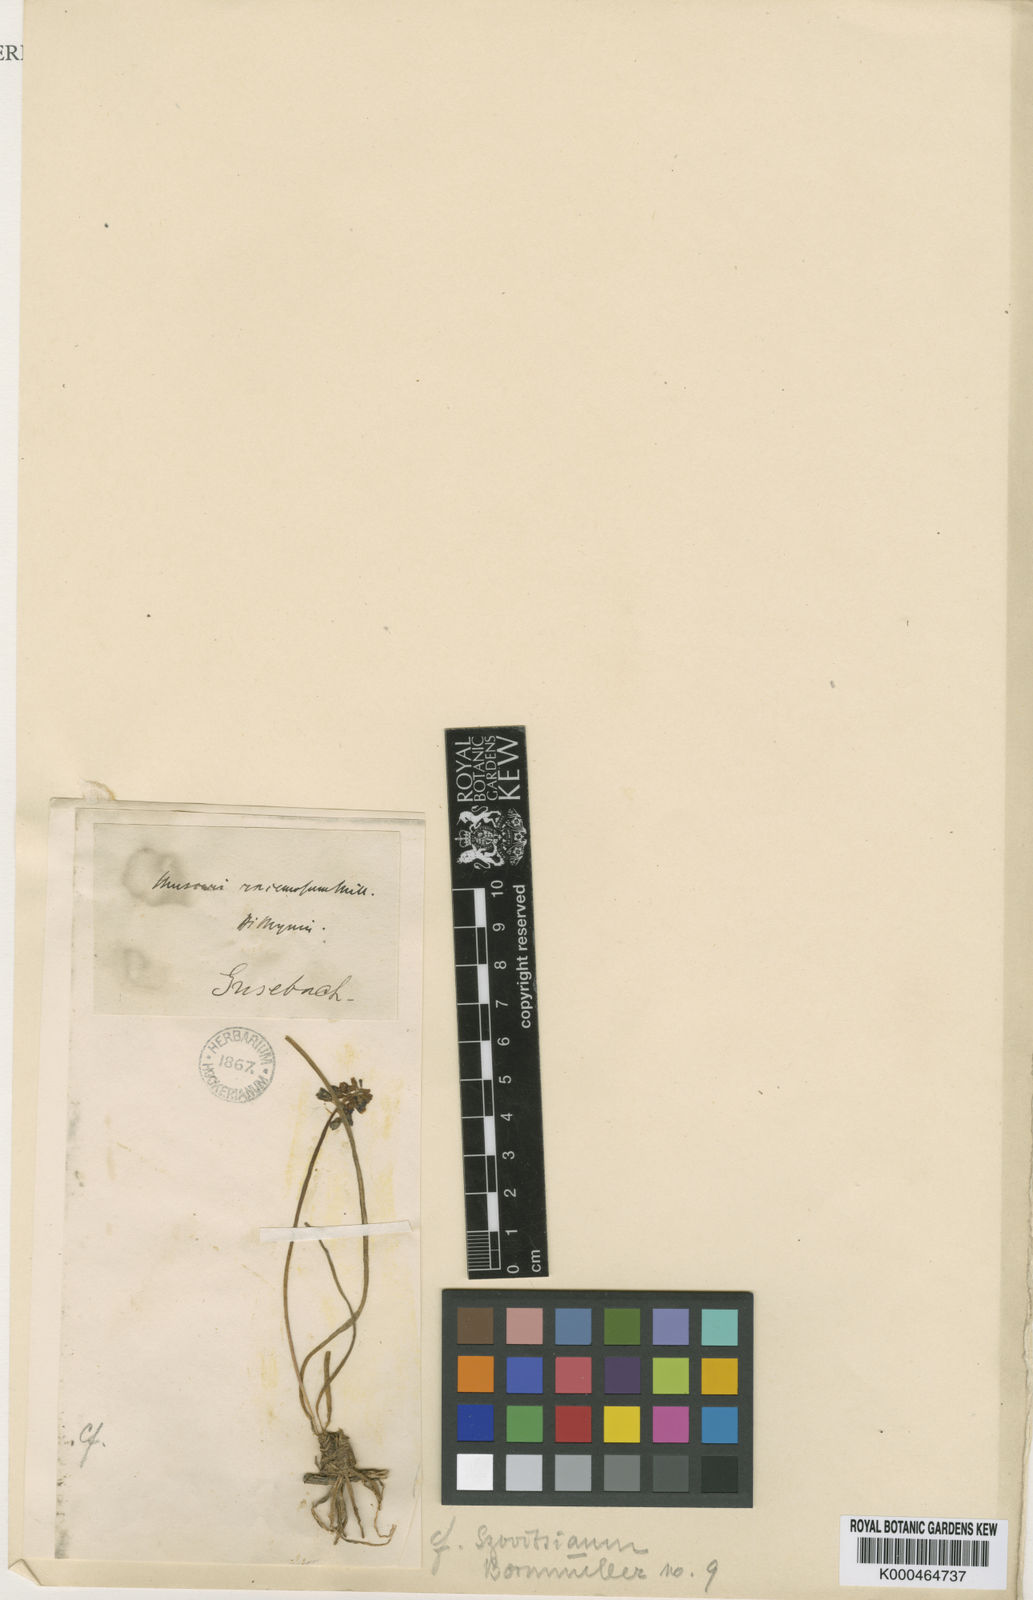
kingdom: Plantae
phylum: Tracheophyta
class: Liliopsida
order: Asparagales
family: Asparagaceae
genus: Muscari
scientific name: Muscari armeniacum
